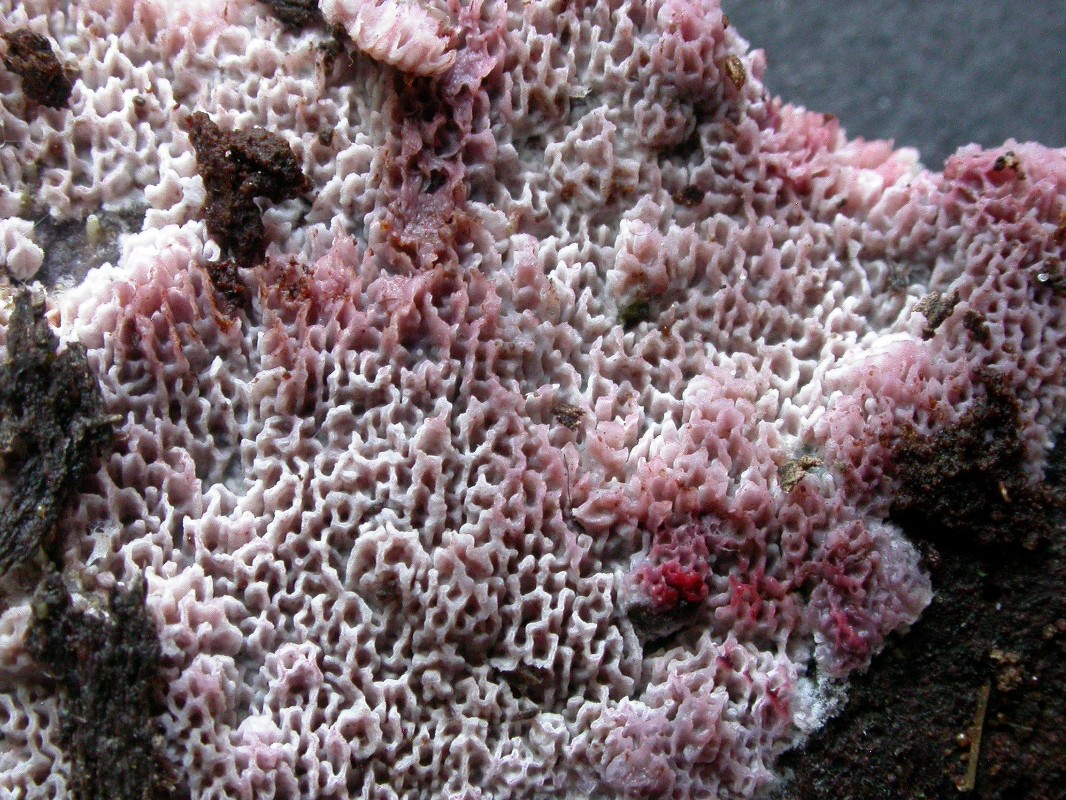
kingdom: Fungi
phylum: Basidiomycota
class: Agaricomycetes
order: Polyporales
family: Irpicaceae
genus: Ceriporia
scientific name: Ceriporia purpurea
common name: purpur-voksporesvamp
